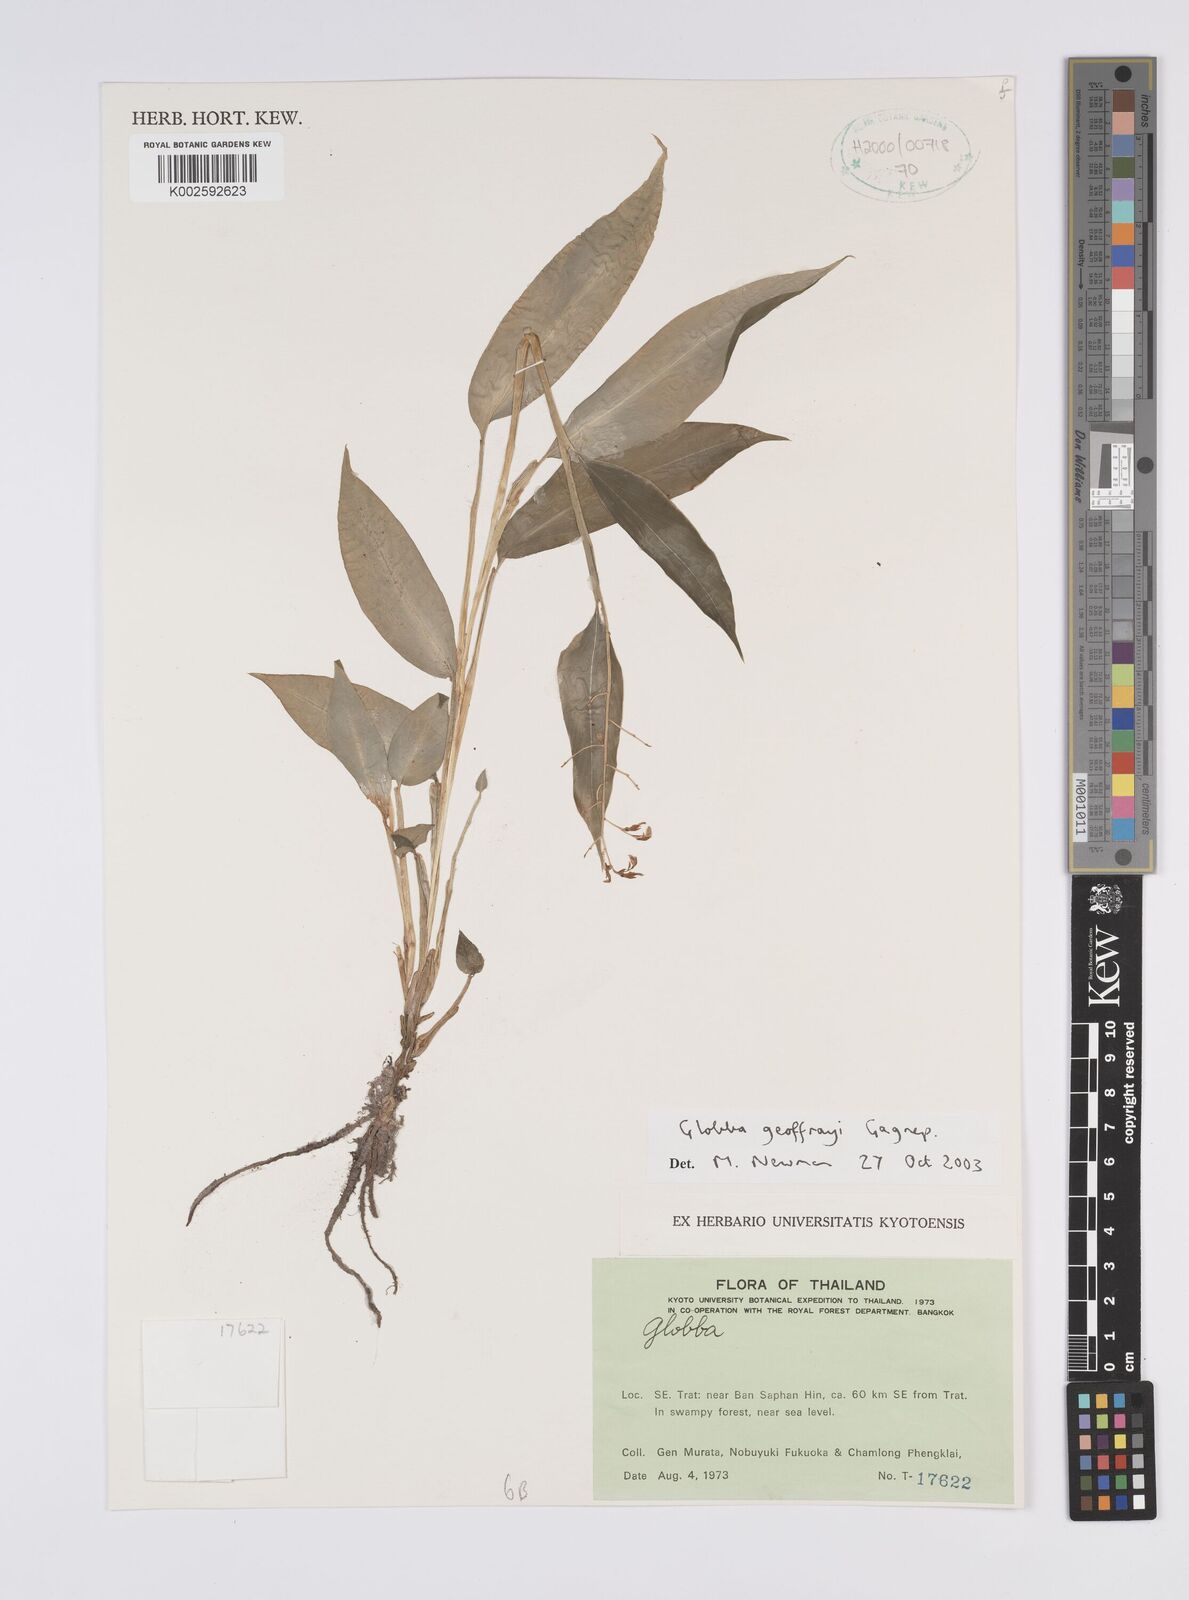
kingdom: Plantae
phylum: Tracheophyta
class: Liliopsida
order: Zingiberales
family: Zingiberaceae
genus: Globba
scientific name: Globba geoffrayi
